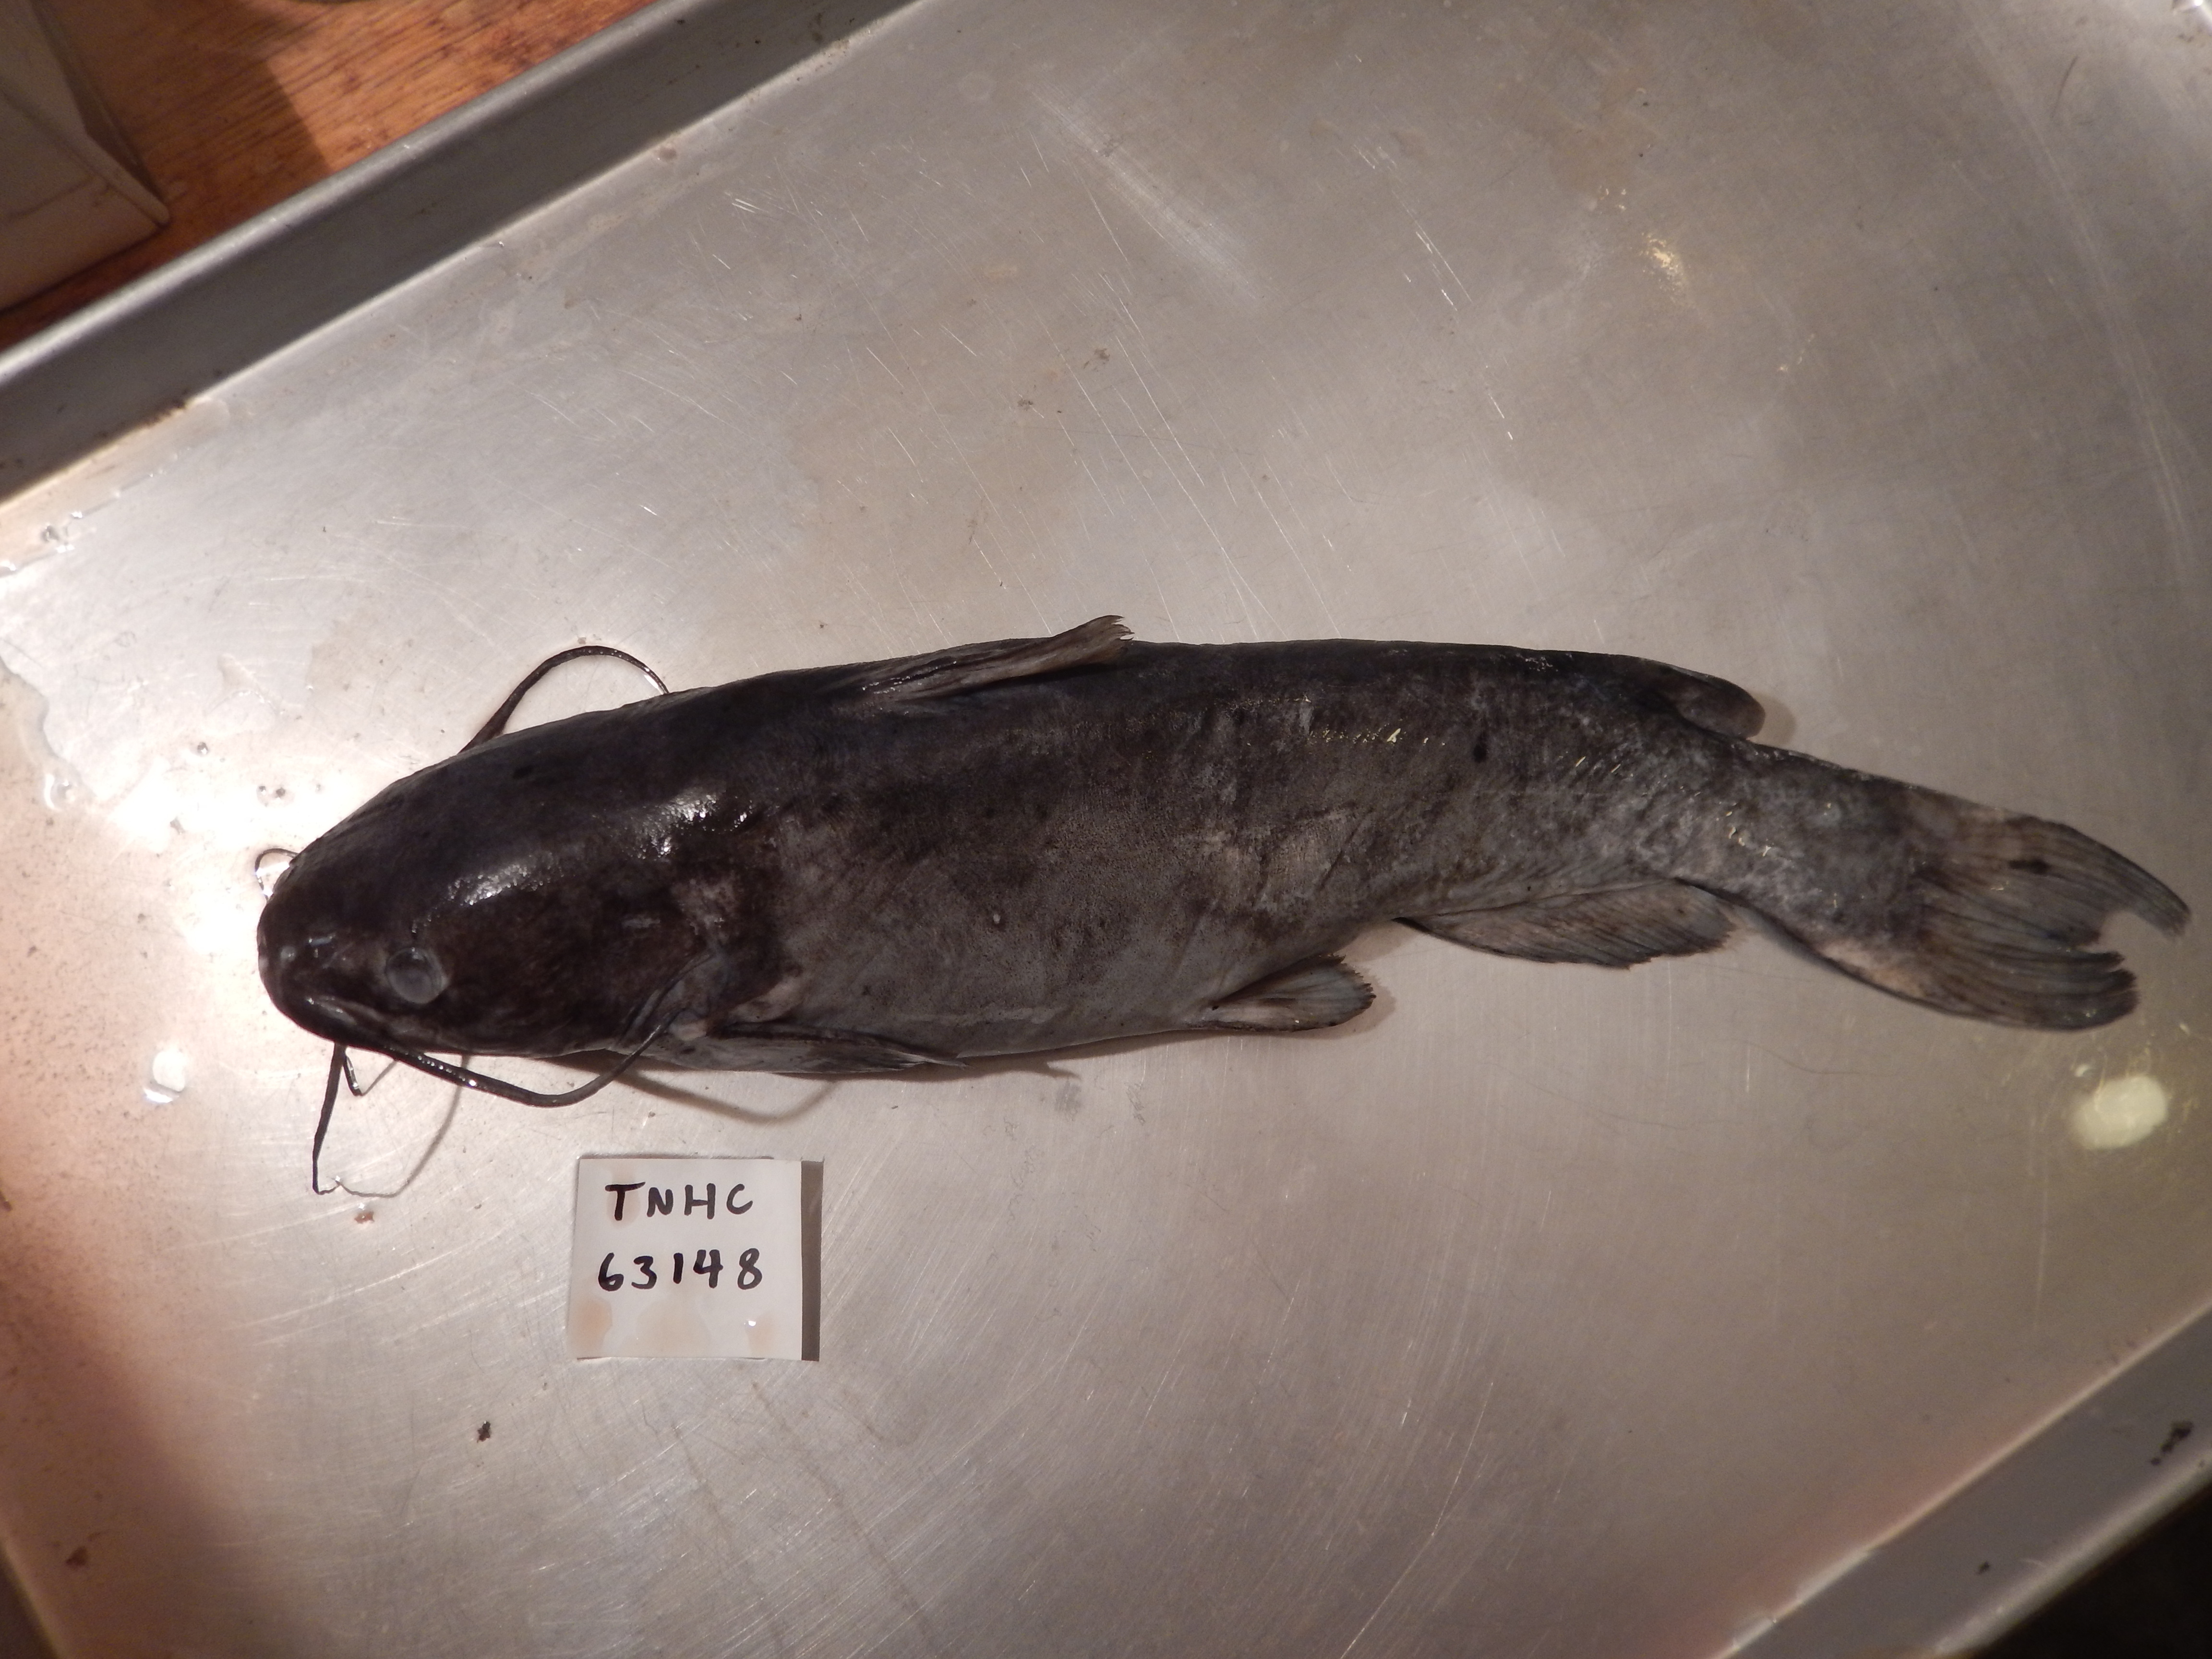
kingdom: Animalia
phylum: Chordata
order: Siluriformes
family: Ictaluridae
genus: Ictalurus
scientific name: Ictalurus pricei
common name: Yaqui catfish
